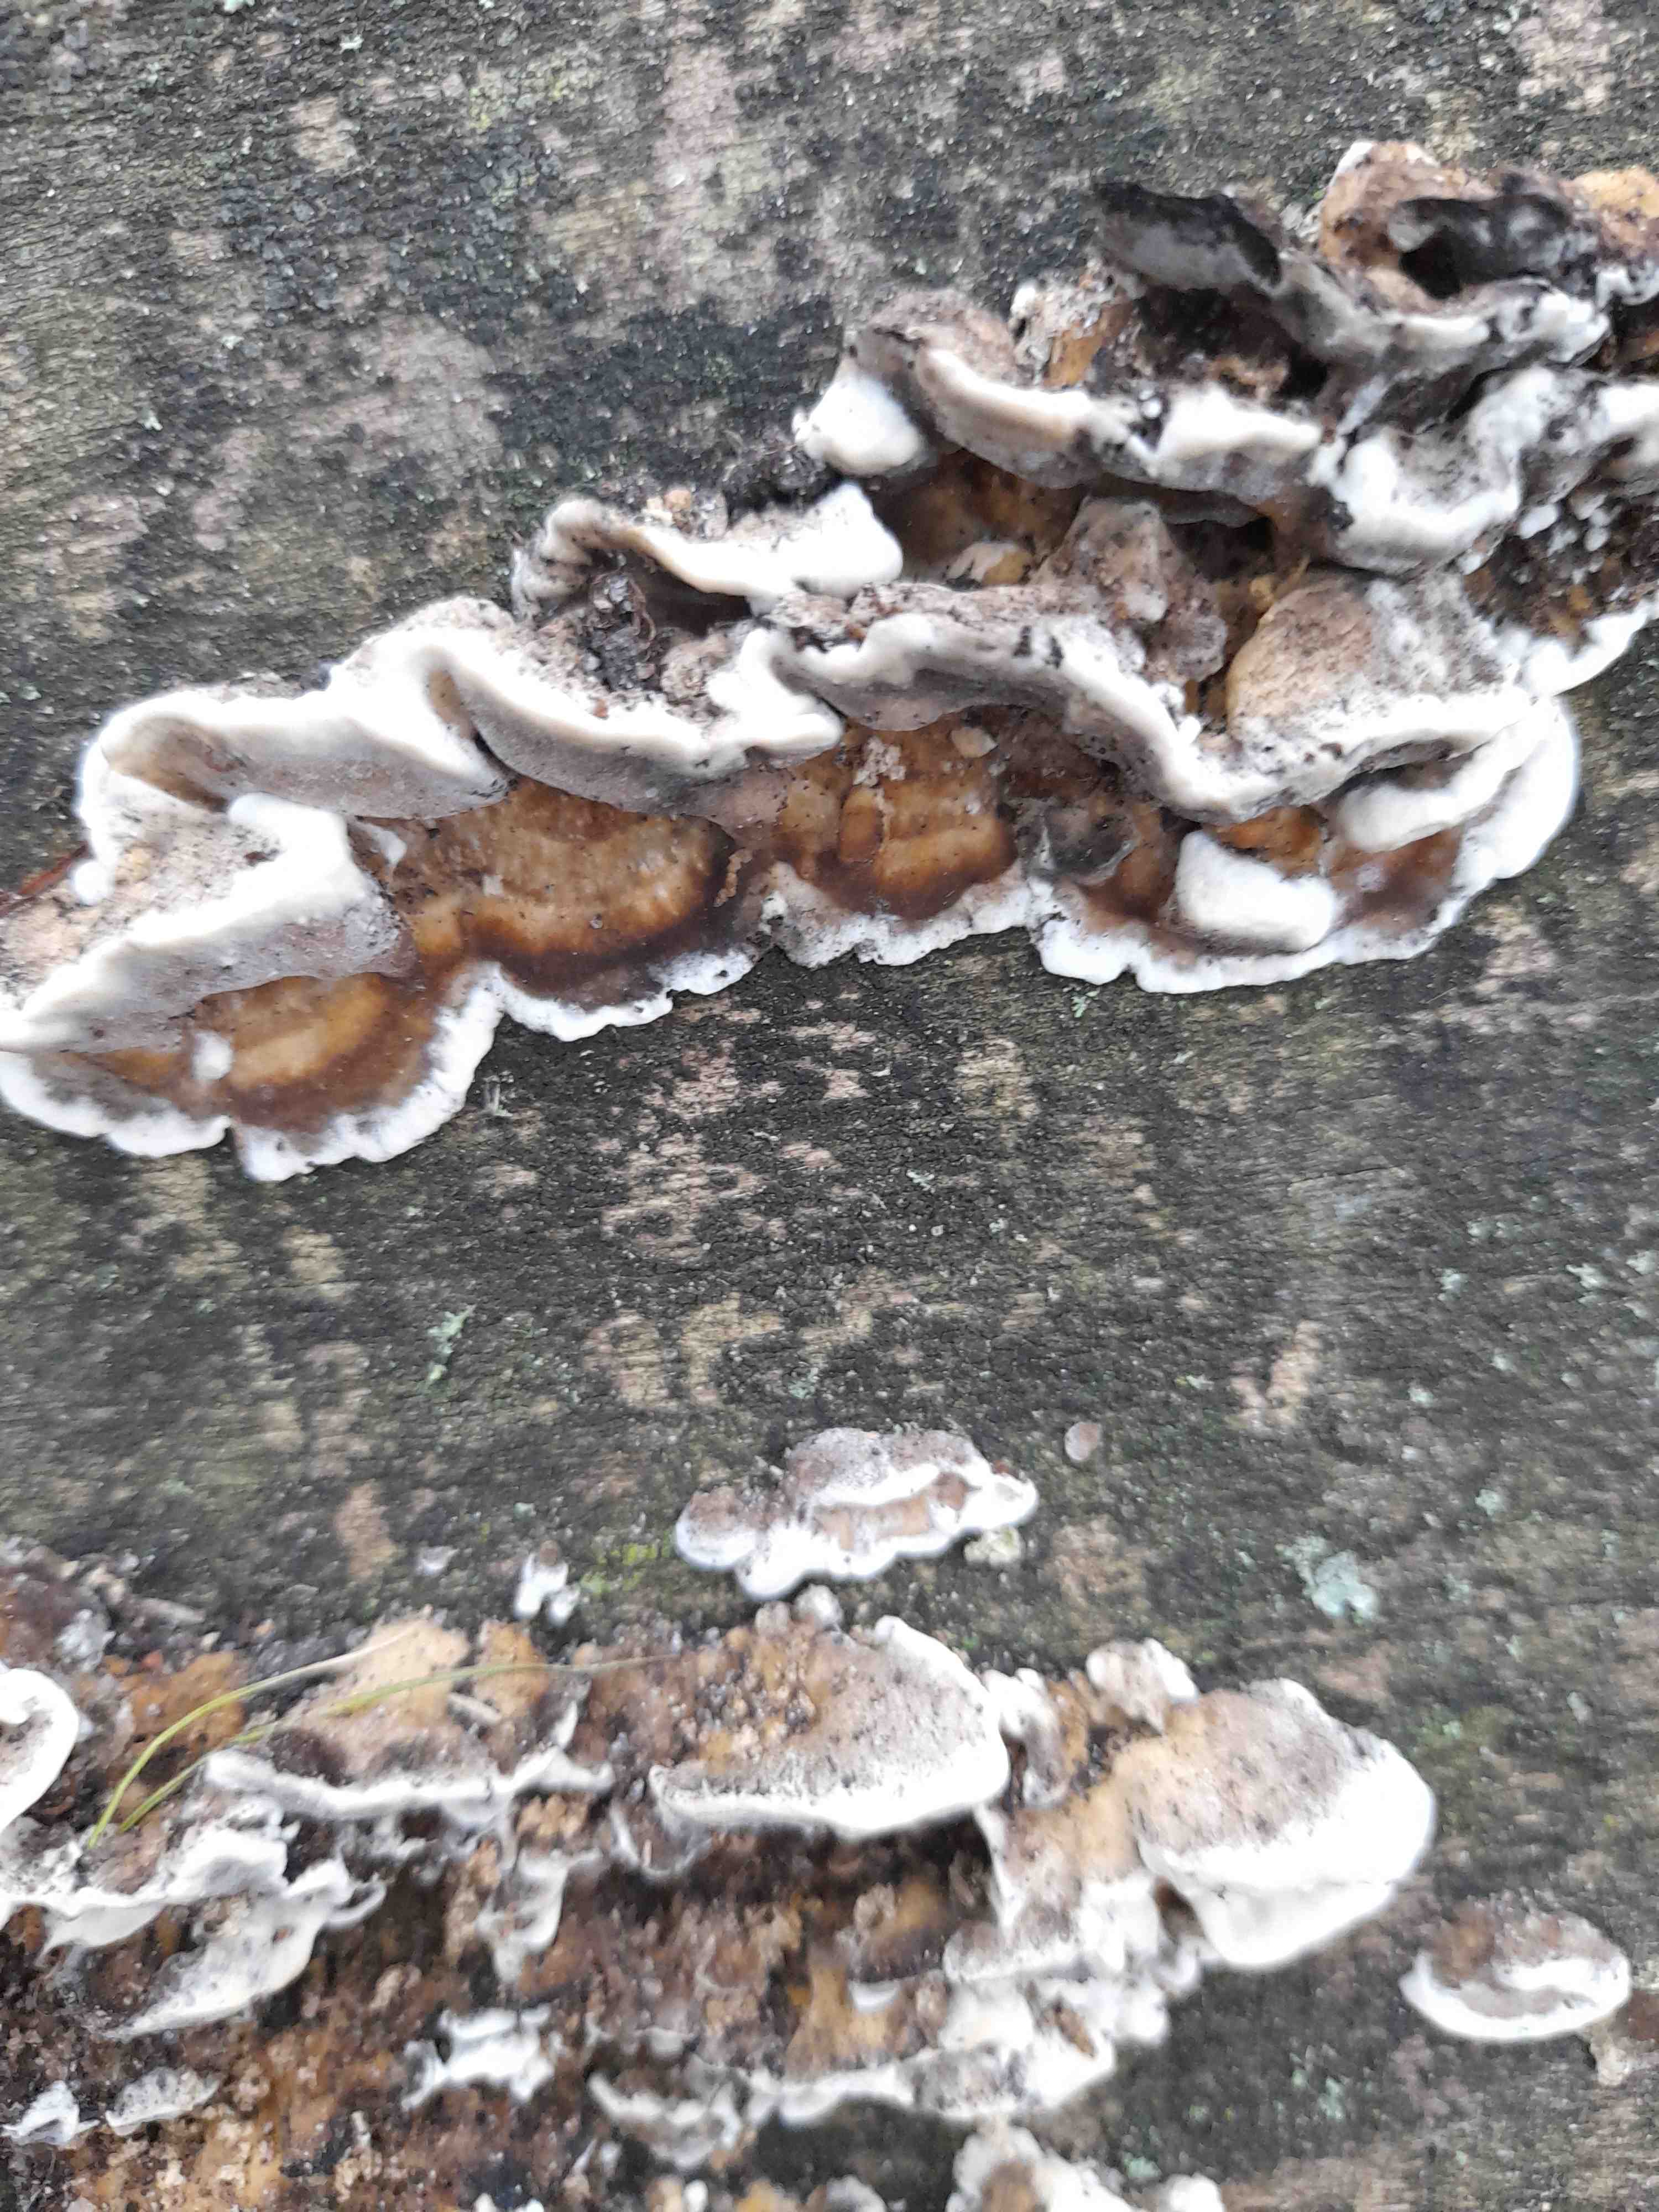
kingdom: Fungi
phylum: Basidiomycota
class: Agaricomycetes
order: Polyporales
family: Phanerochaetaceae
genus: Bjerkandera
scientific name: Bjerkandera adusta
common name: sveden sodporesvamp
